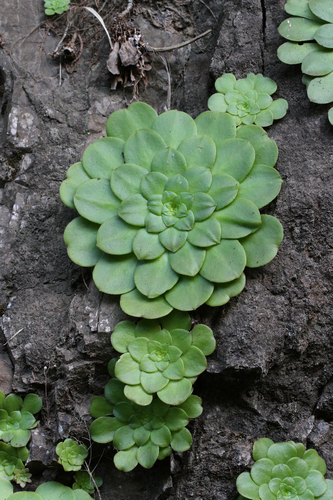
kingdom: Plantae
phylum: Tracheophyta
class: Magnoliopsida
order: Saxifragales
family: Crassulaceae
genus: Aeonium
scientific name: Aeonium glandulosum
